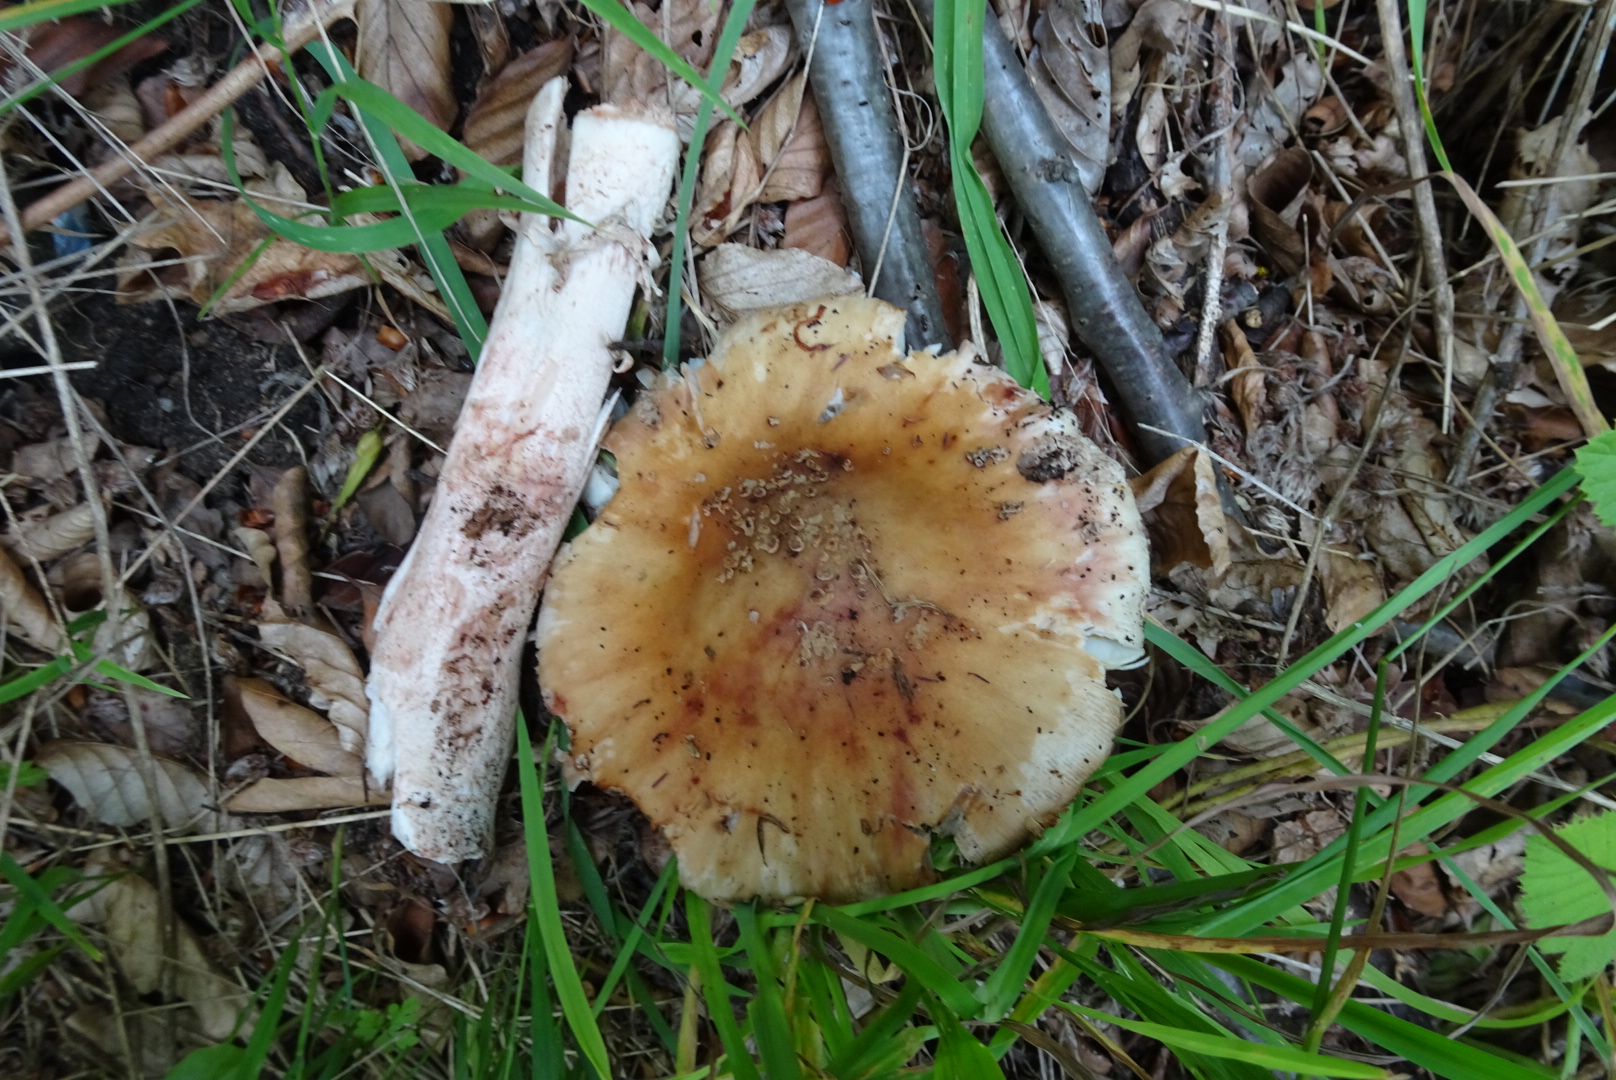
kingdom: Fungi
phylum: Basidiomycota
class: Agaricomycetes
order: Agaricales
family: Amanitaceae
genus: Amanita
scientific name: Amanita rubescens
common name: rødmende fluesvamp
